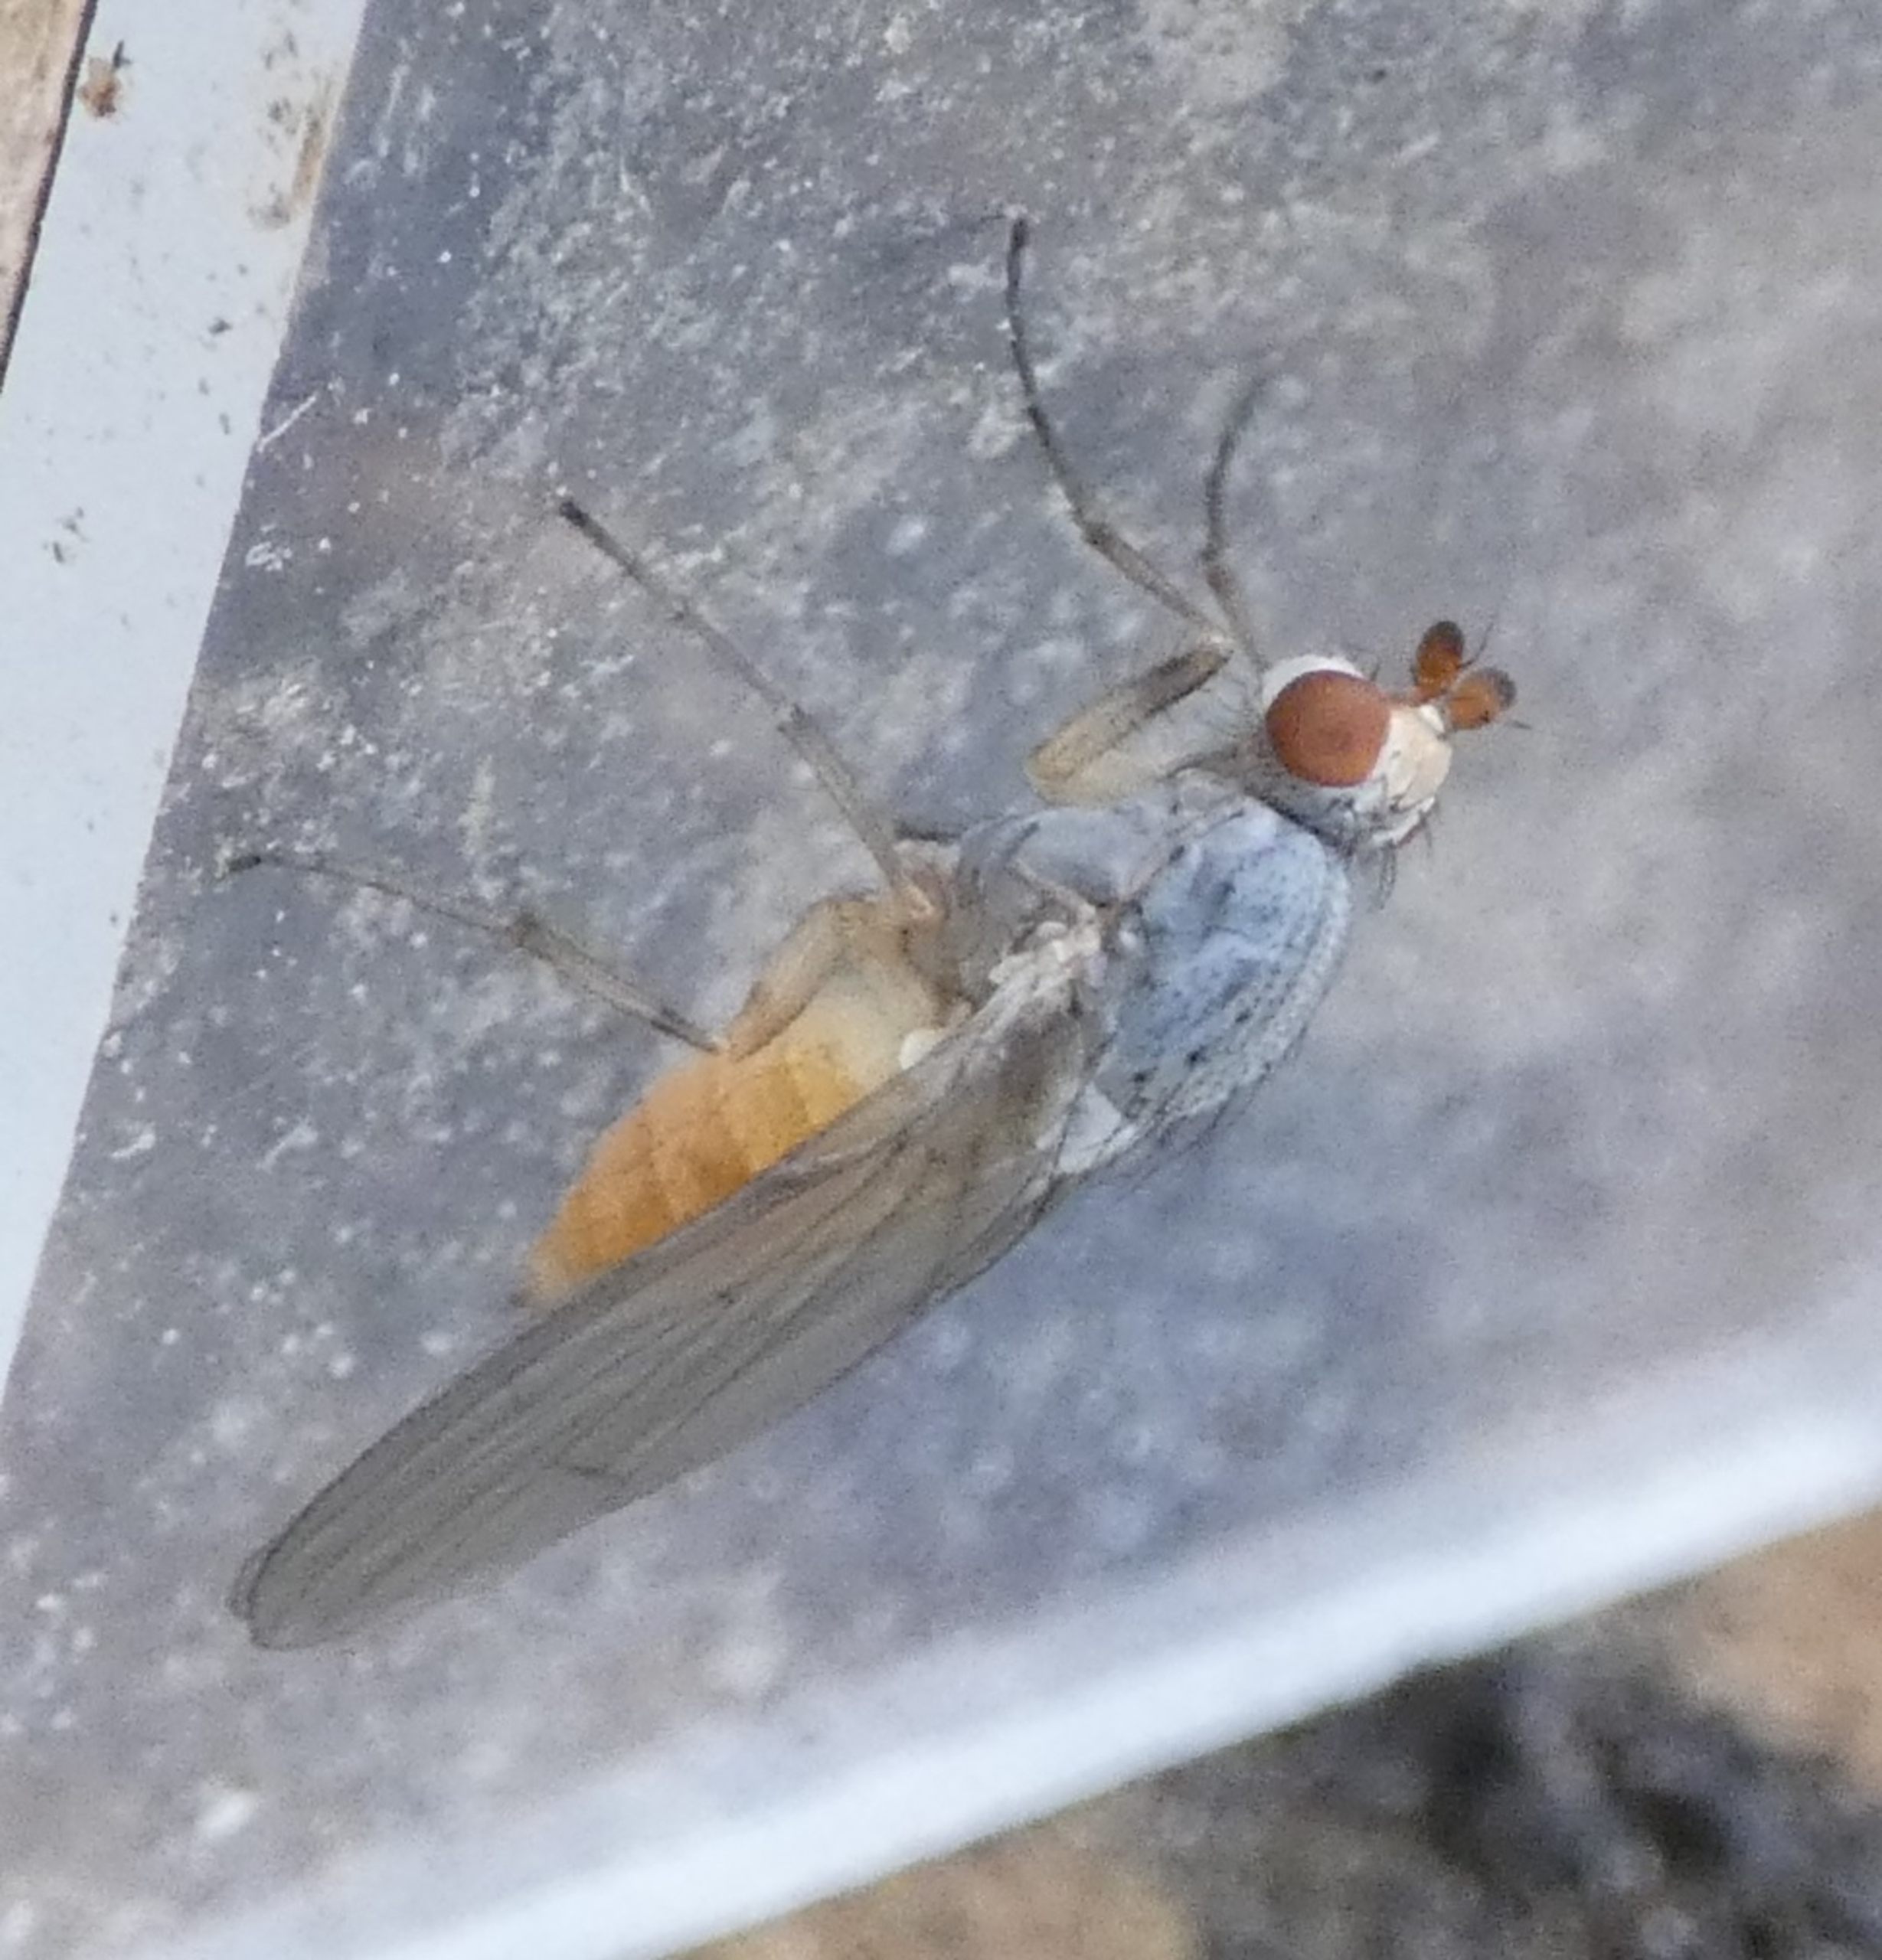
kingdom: Animalia
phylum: Arthropoda
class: Insecta
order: Diptera
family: Heleomyzidae
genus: Tephrochlamys
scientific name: Tephrochlamys flavipes
